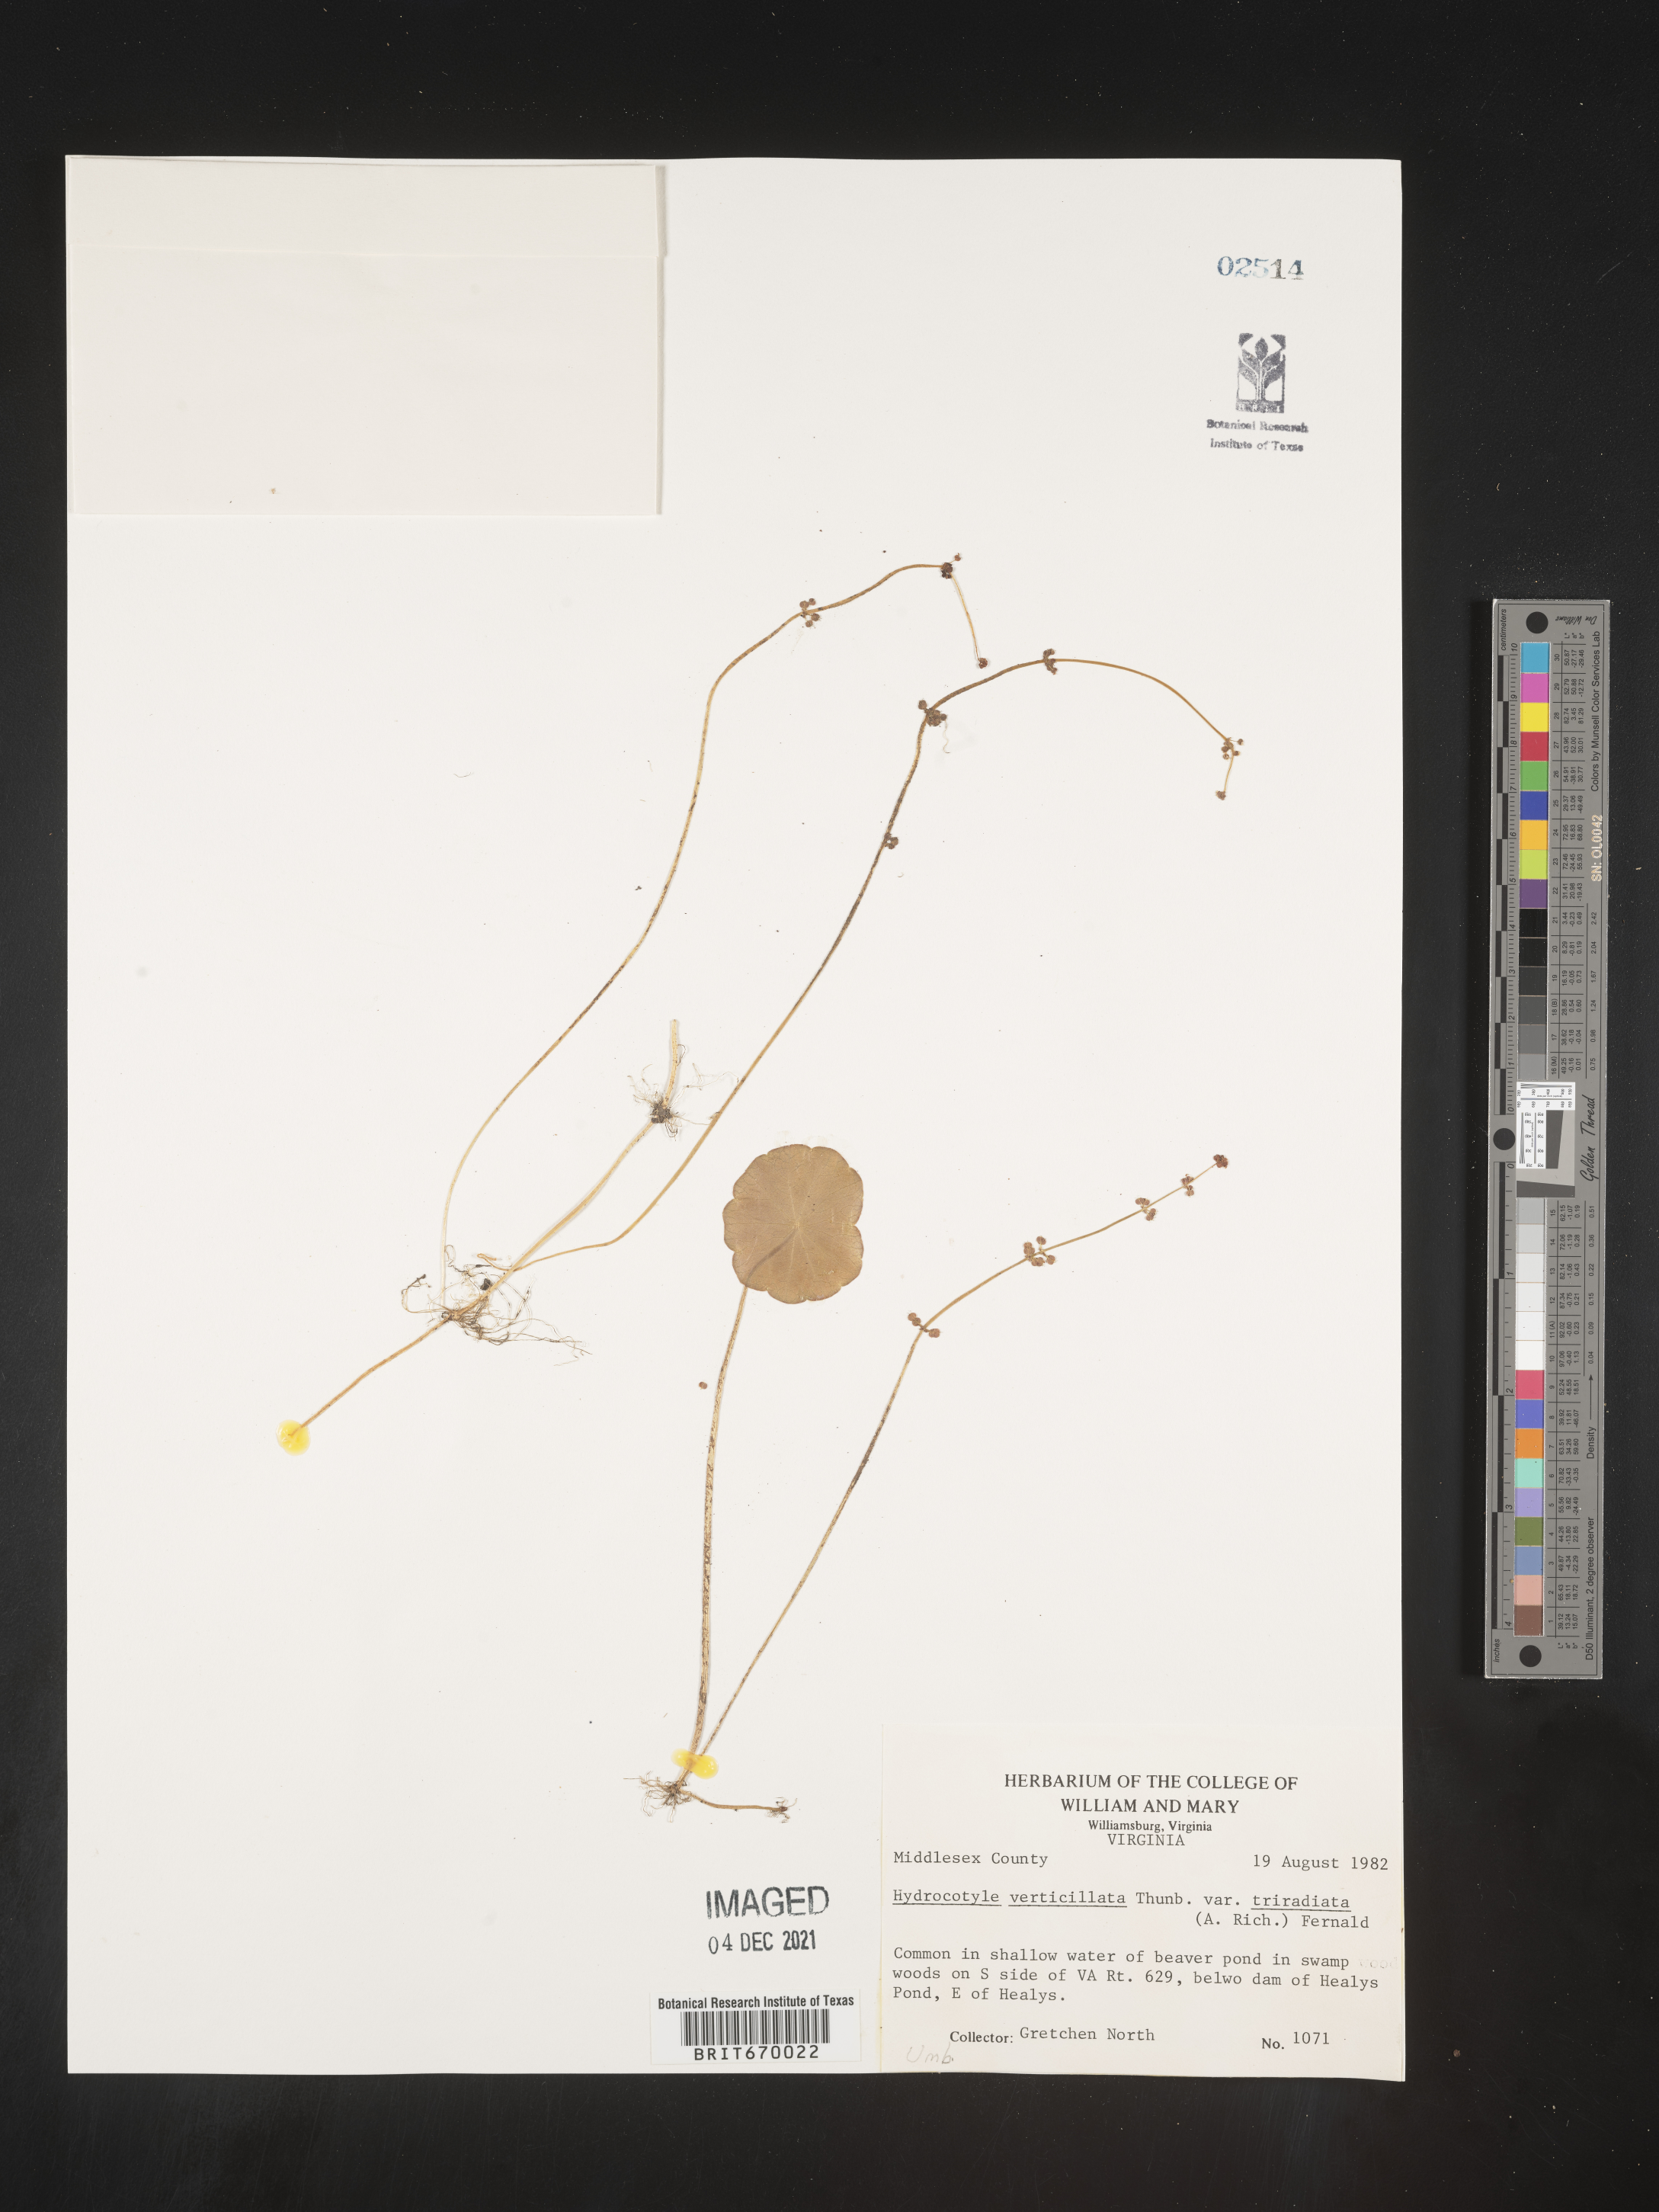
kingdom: Plantae
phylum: Tracheophyta
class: Magnoliopsida
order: Apiales
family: Araliaceae
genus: Hydrocotyle
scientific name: Hydrocotyle verticillata
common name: Whorled marshpennywort
